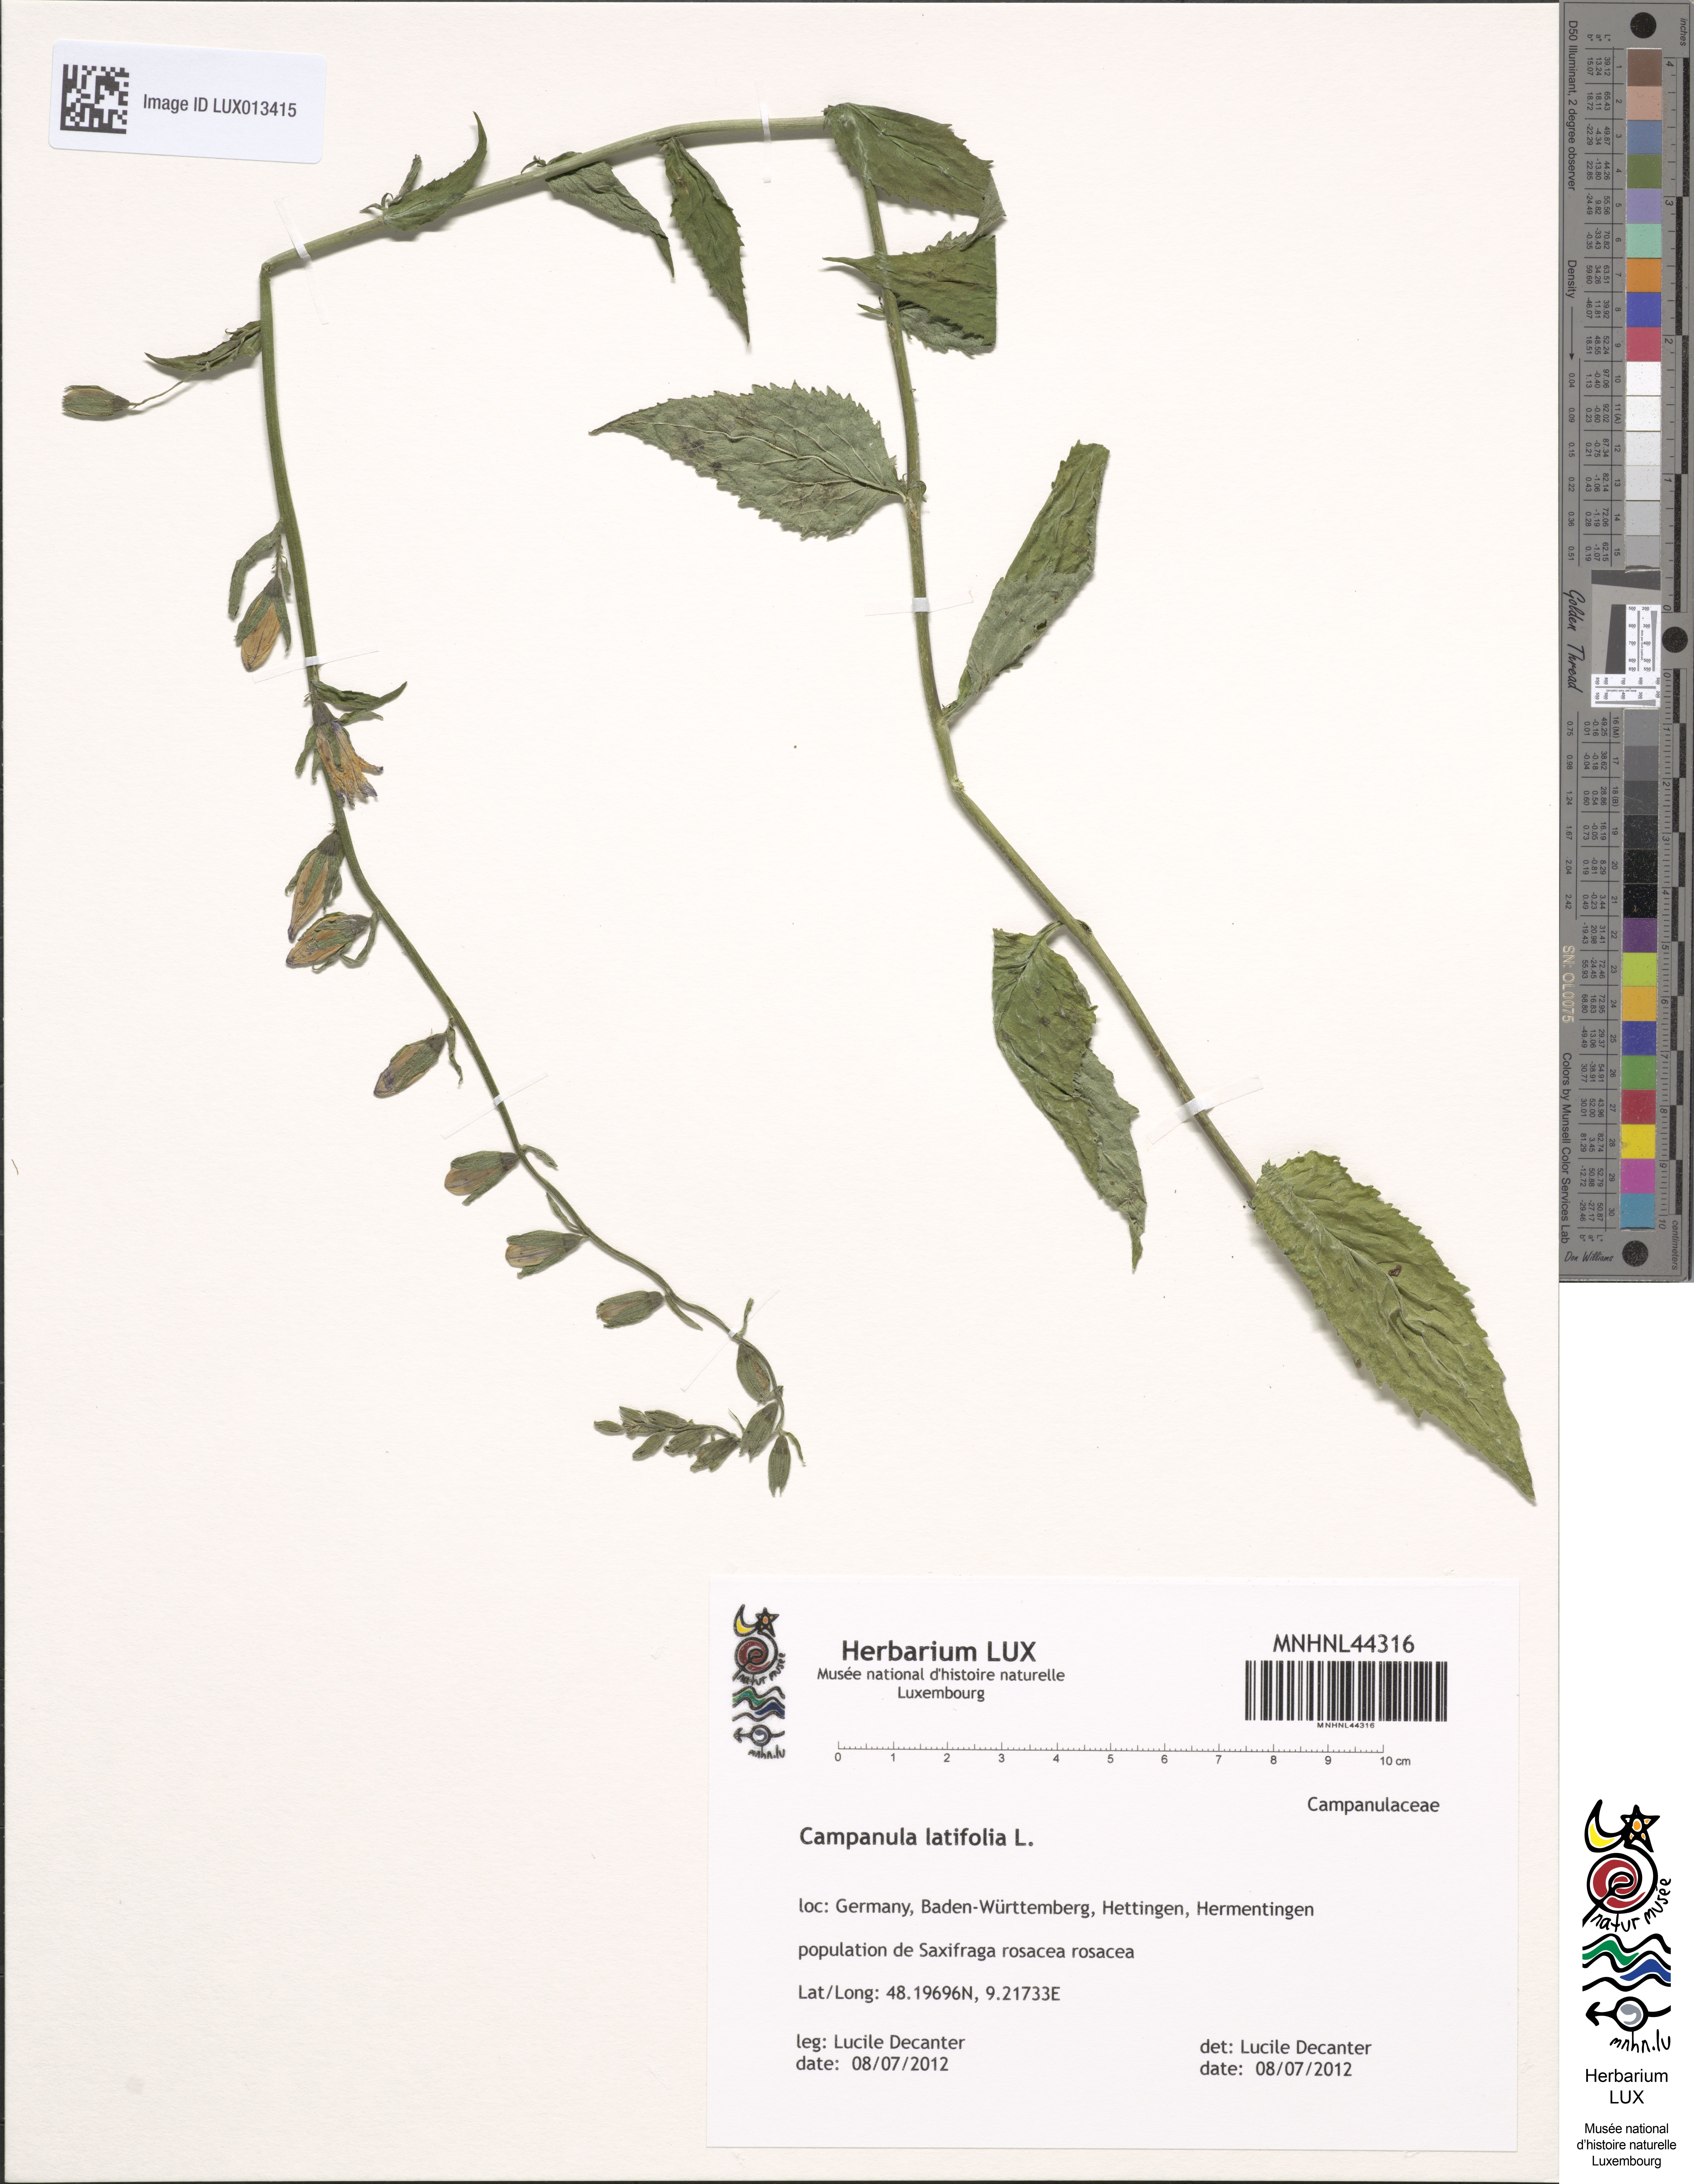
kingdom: Plantae
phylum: Tracheophyta
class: Magnoliopsida
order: Asterales
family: Campanulaceae
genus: Campanula
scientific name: Campanula latifolia
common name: Giant bellflower
